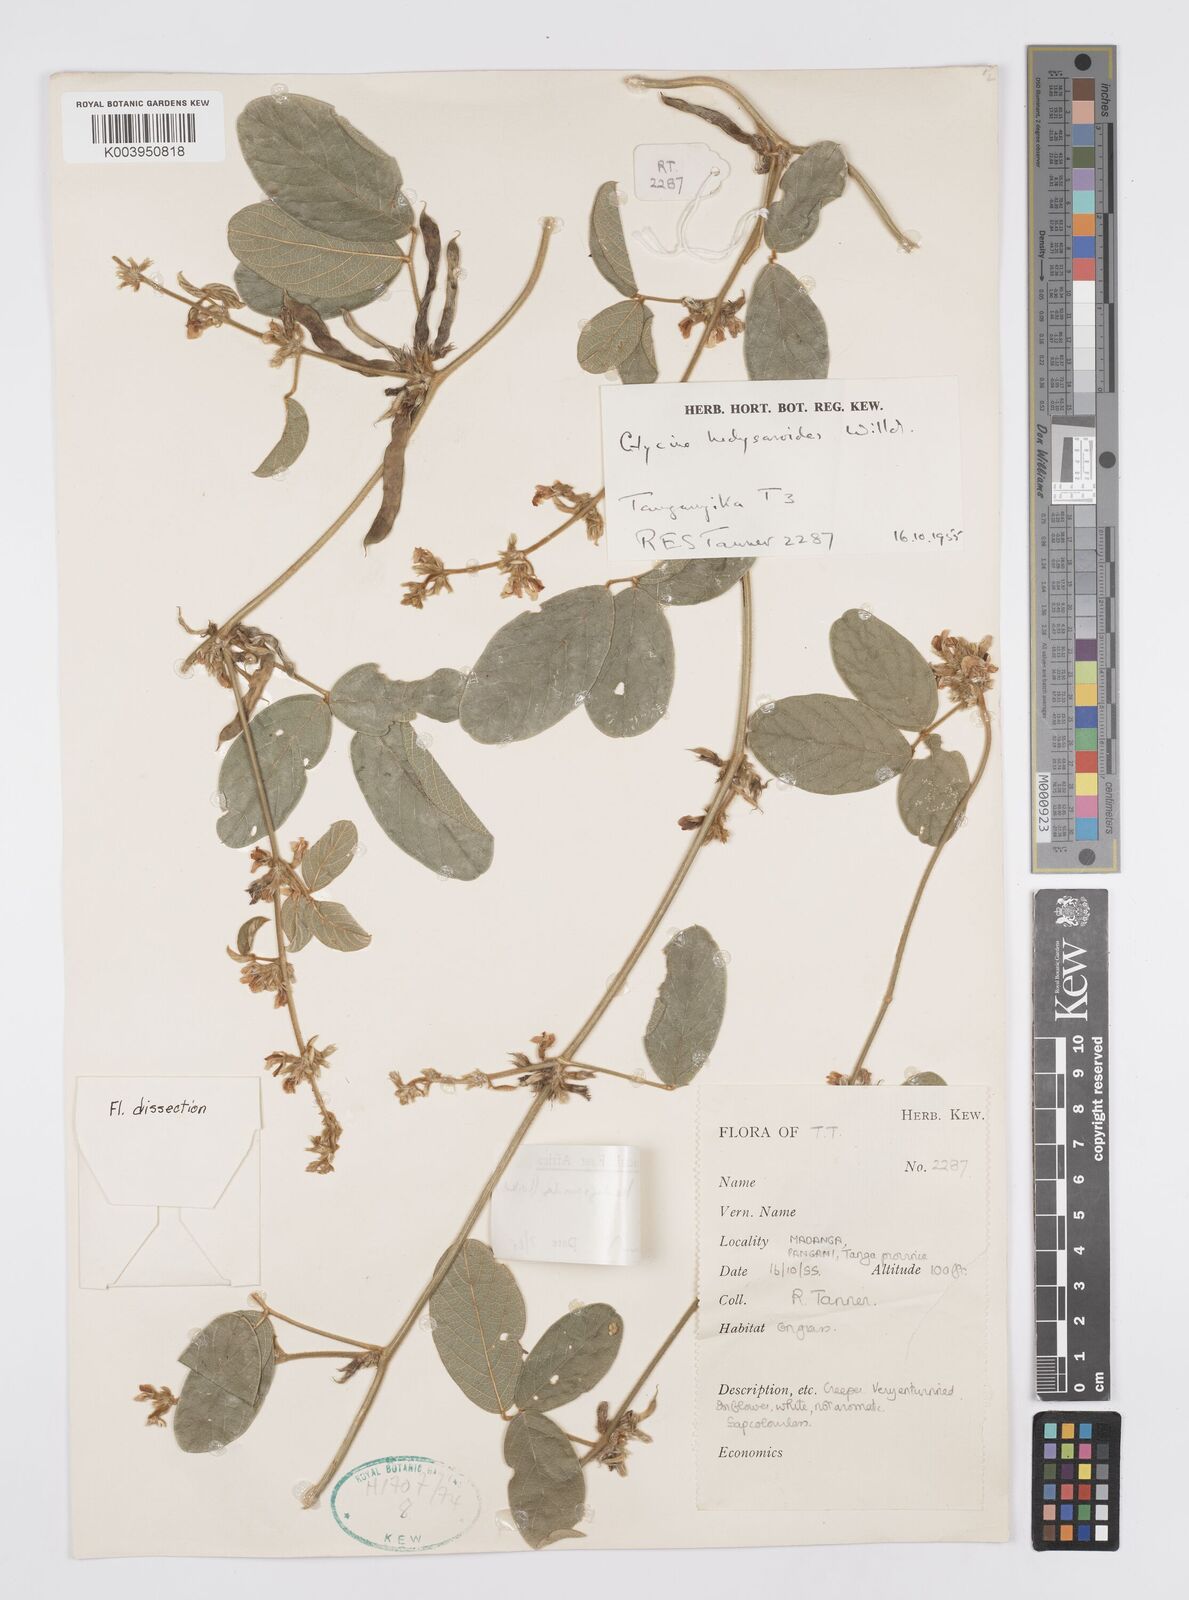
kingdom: Plantae
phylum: Tracheophyta
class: Magnoliopsida
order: Fabales
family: Fabaceae
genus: Ophrestia
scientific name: Ophrestia hedysaroides
